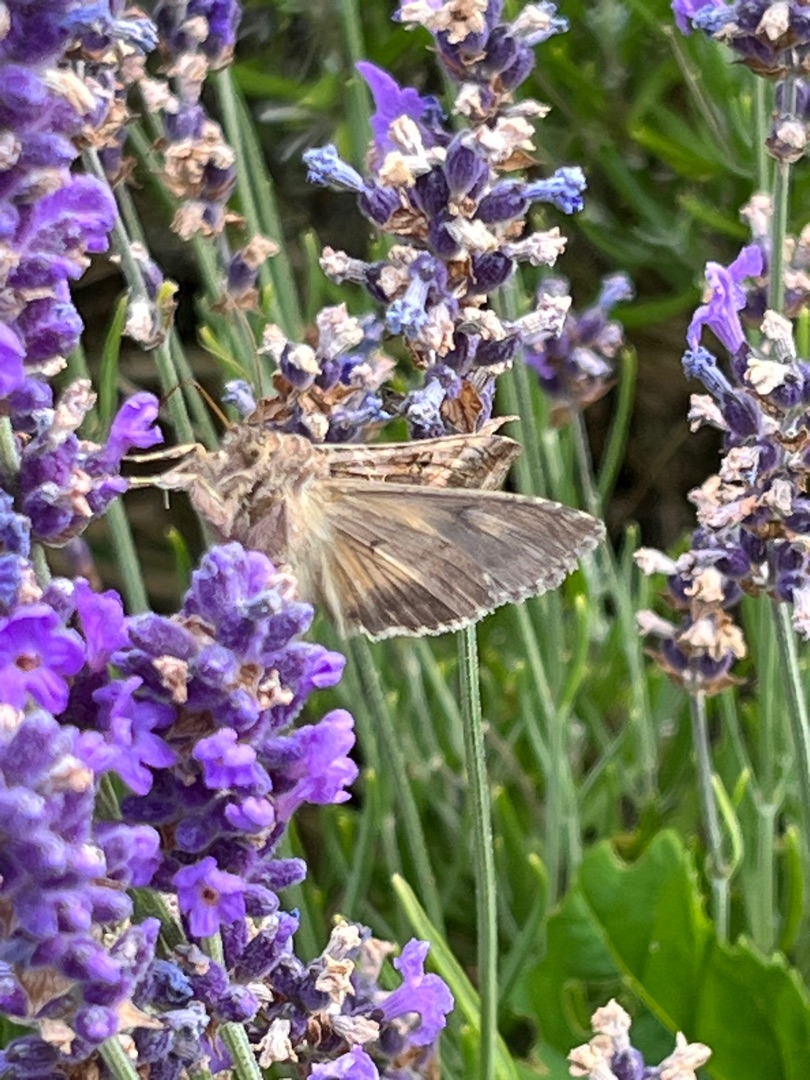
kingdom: Animalia
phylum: Arthropoda
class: Insecta
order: Lepidoptera
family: Noctuidae
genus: Autographa
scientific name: Autographa gamma
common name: Gammaugle
